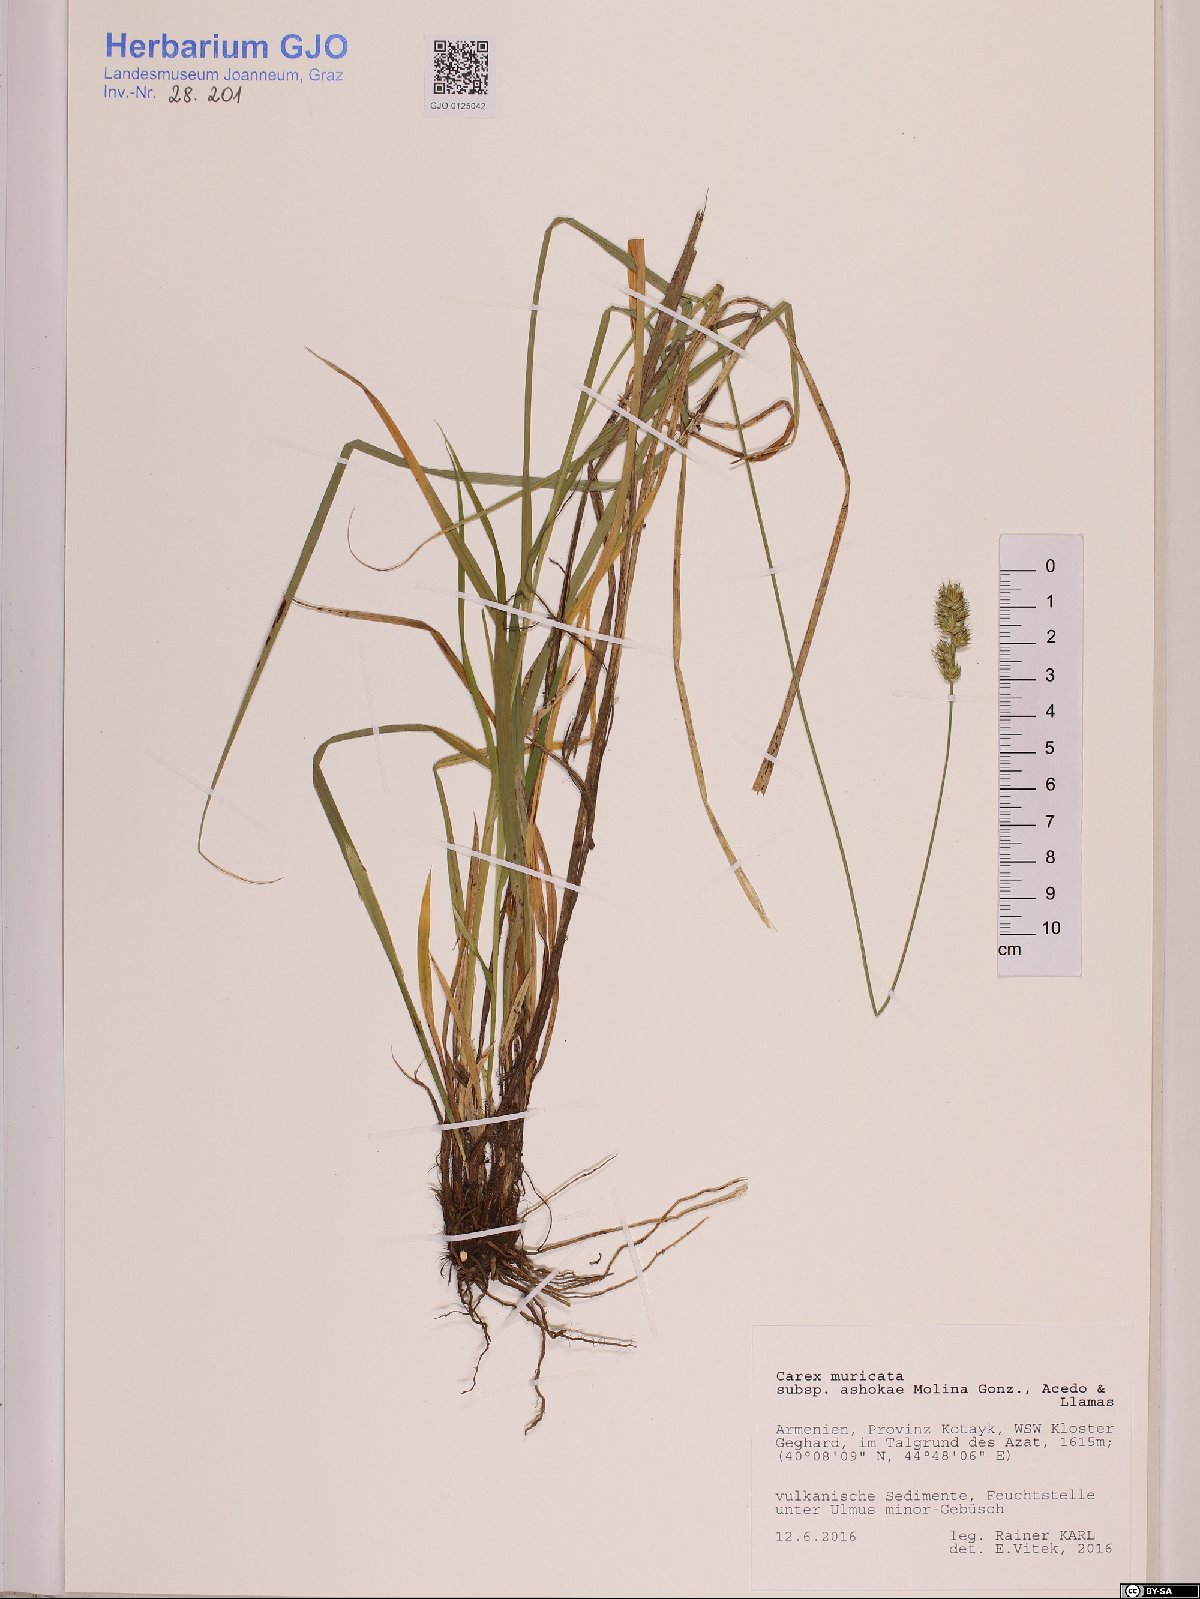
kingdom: Plantae
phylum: Tracheophyta
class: Liliopsida
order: Poales
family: Cyperaceae
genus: Carex
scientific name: Carex muricata
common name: Rough sedge
